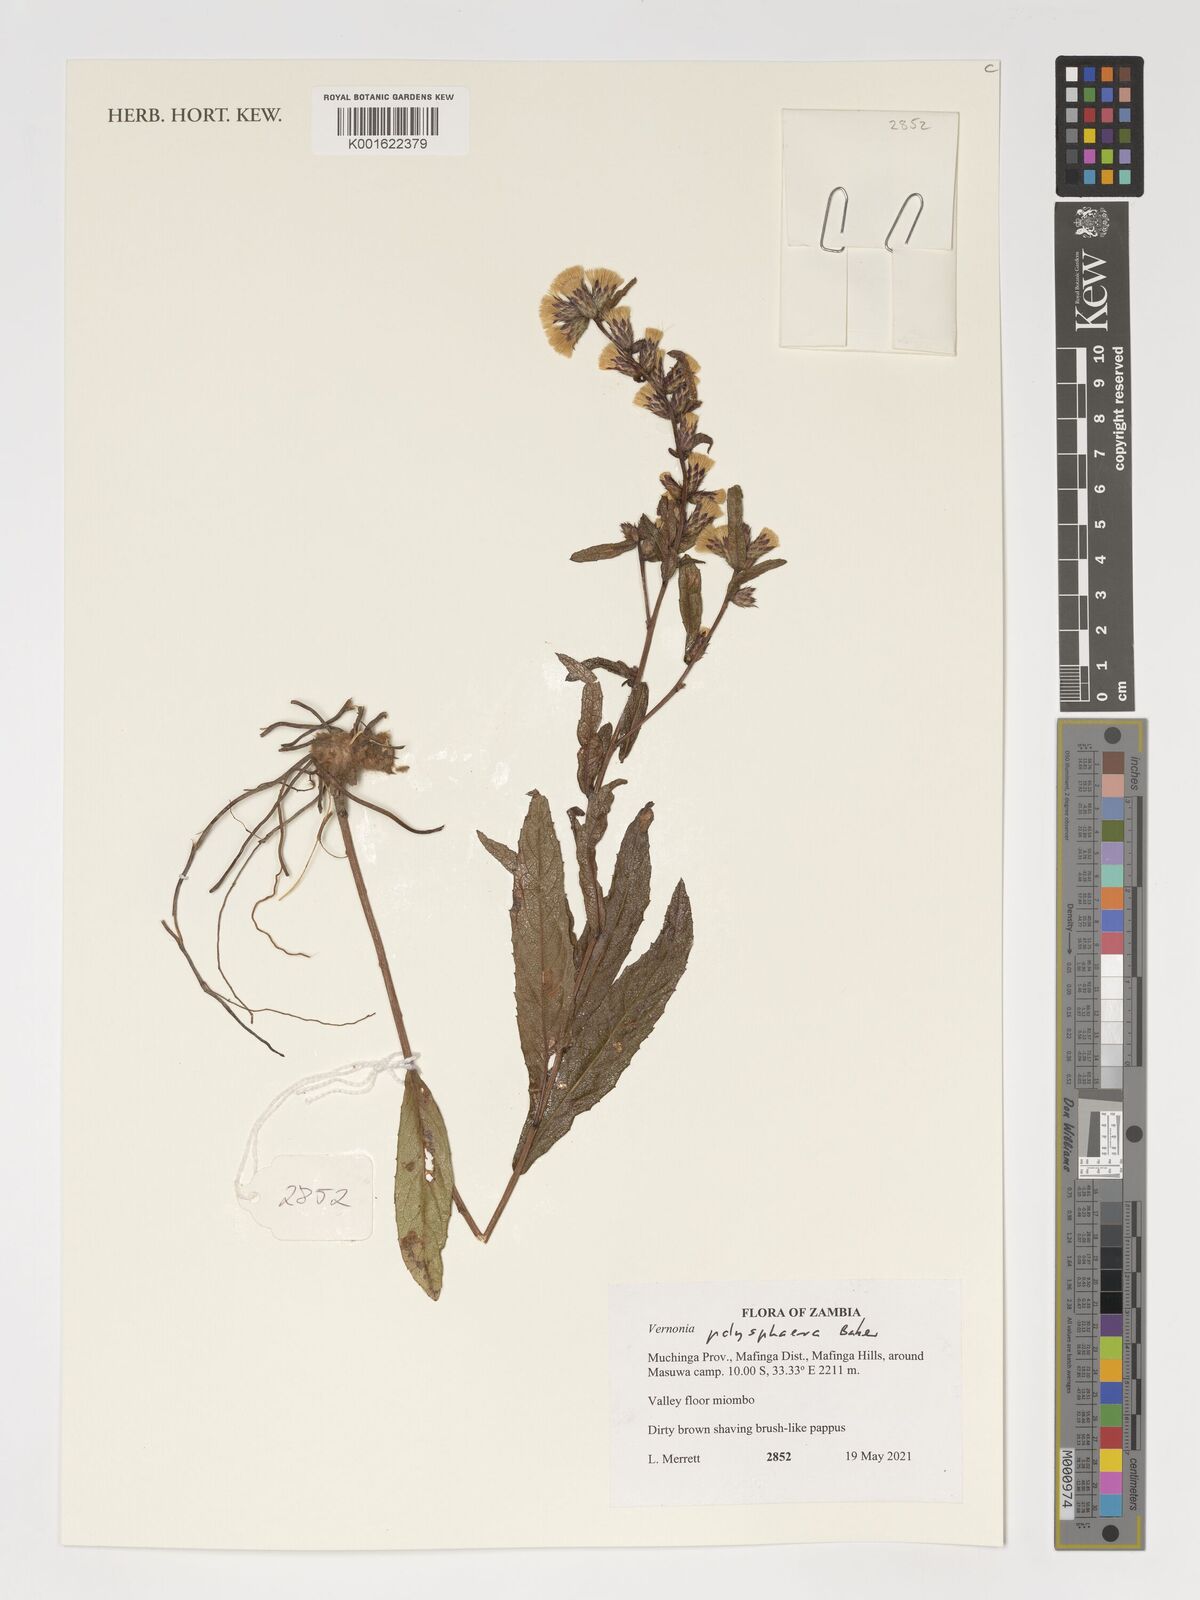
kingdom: Plantae
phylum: Tracheophyta
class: Magnoliopsida
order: Asterales
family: Asteraceae
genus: Cabobanthus
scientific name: Cabobanthus polysphaerus
